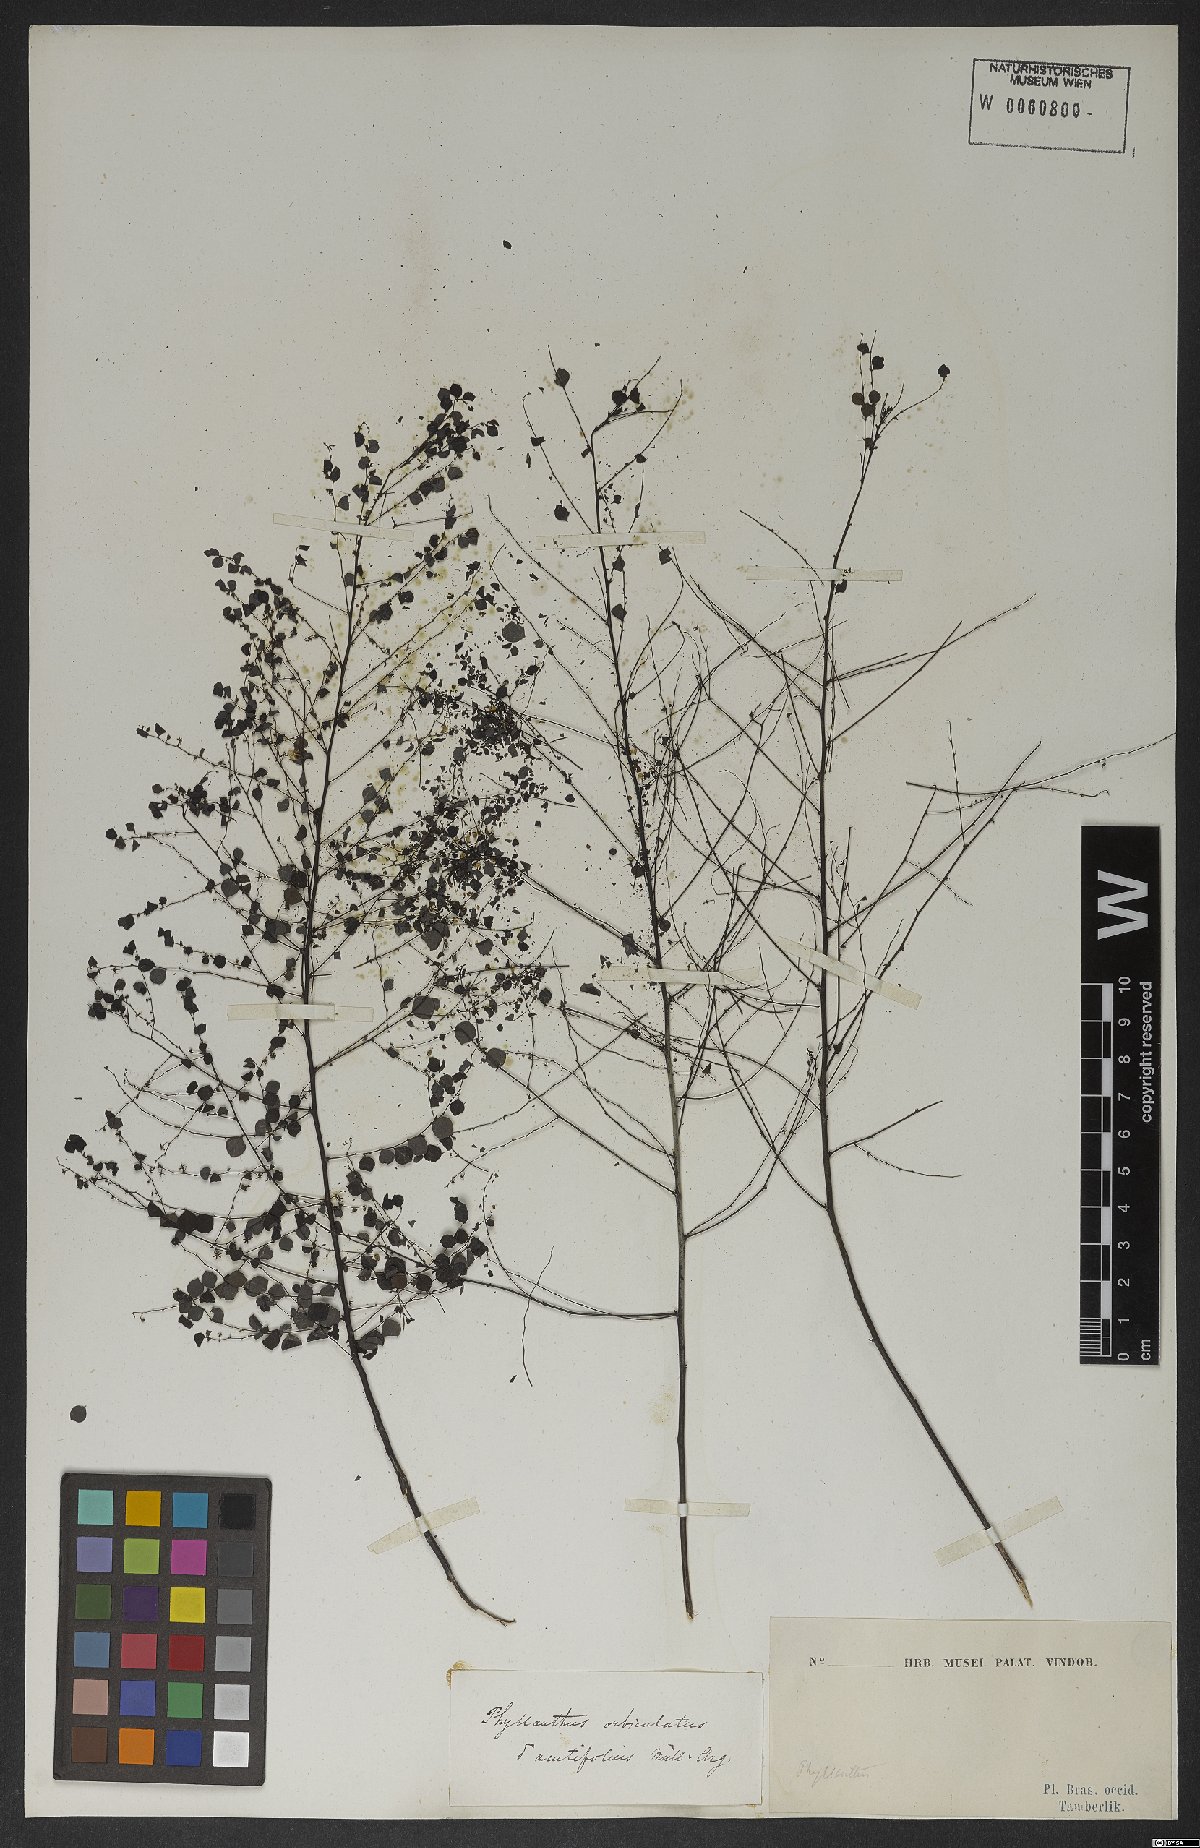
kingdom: Plantae
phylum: Tracheophyta
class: Magnoliopsida
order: Malpighiales
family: Phyllanthaceae
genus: Phyllanthus
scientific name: Phyllanthus orbiculatus
